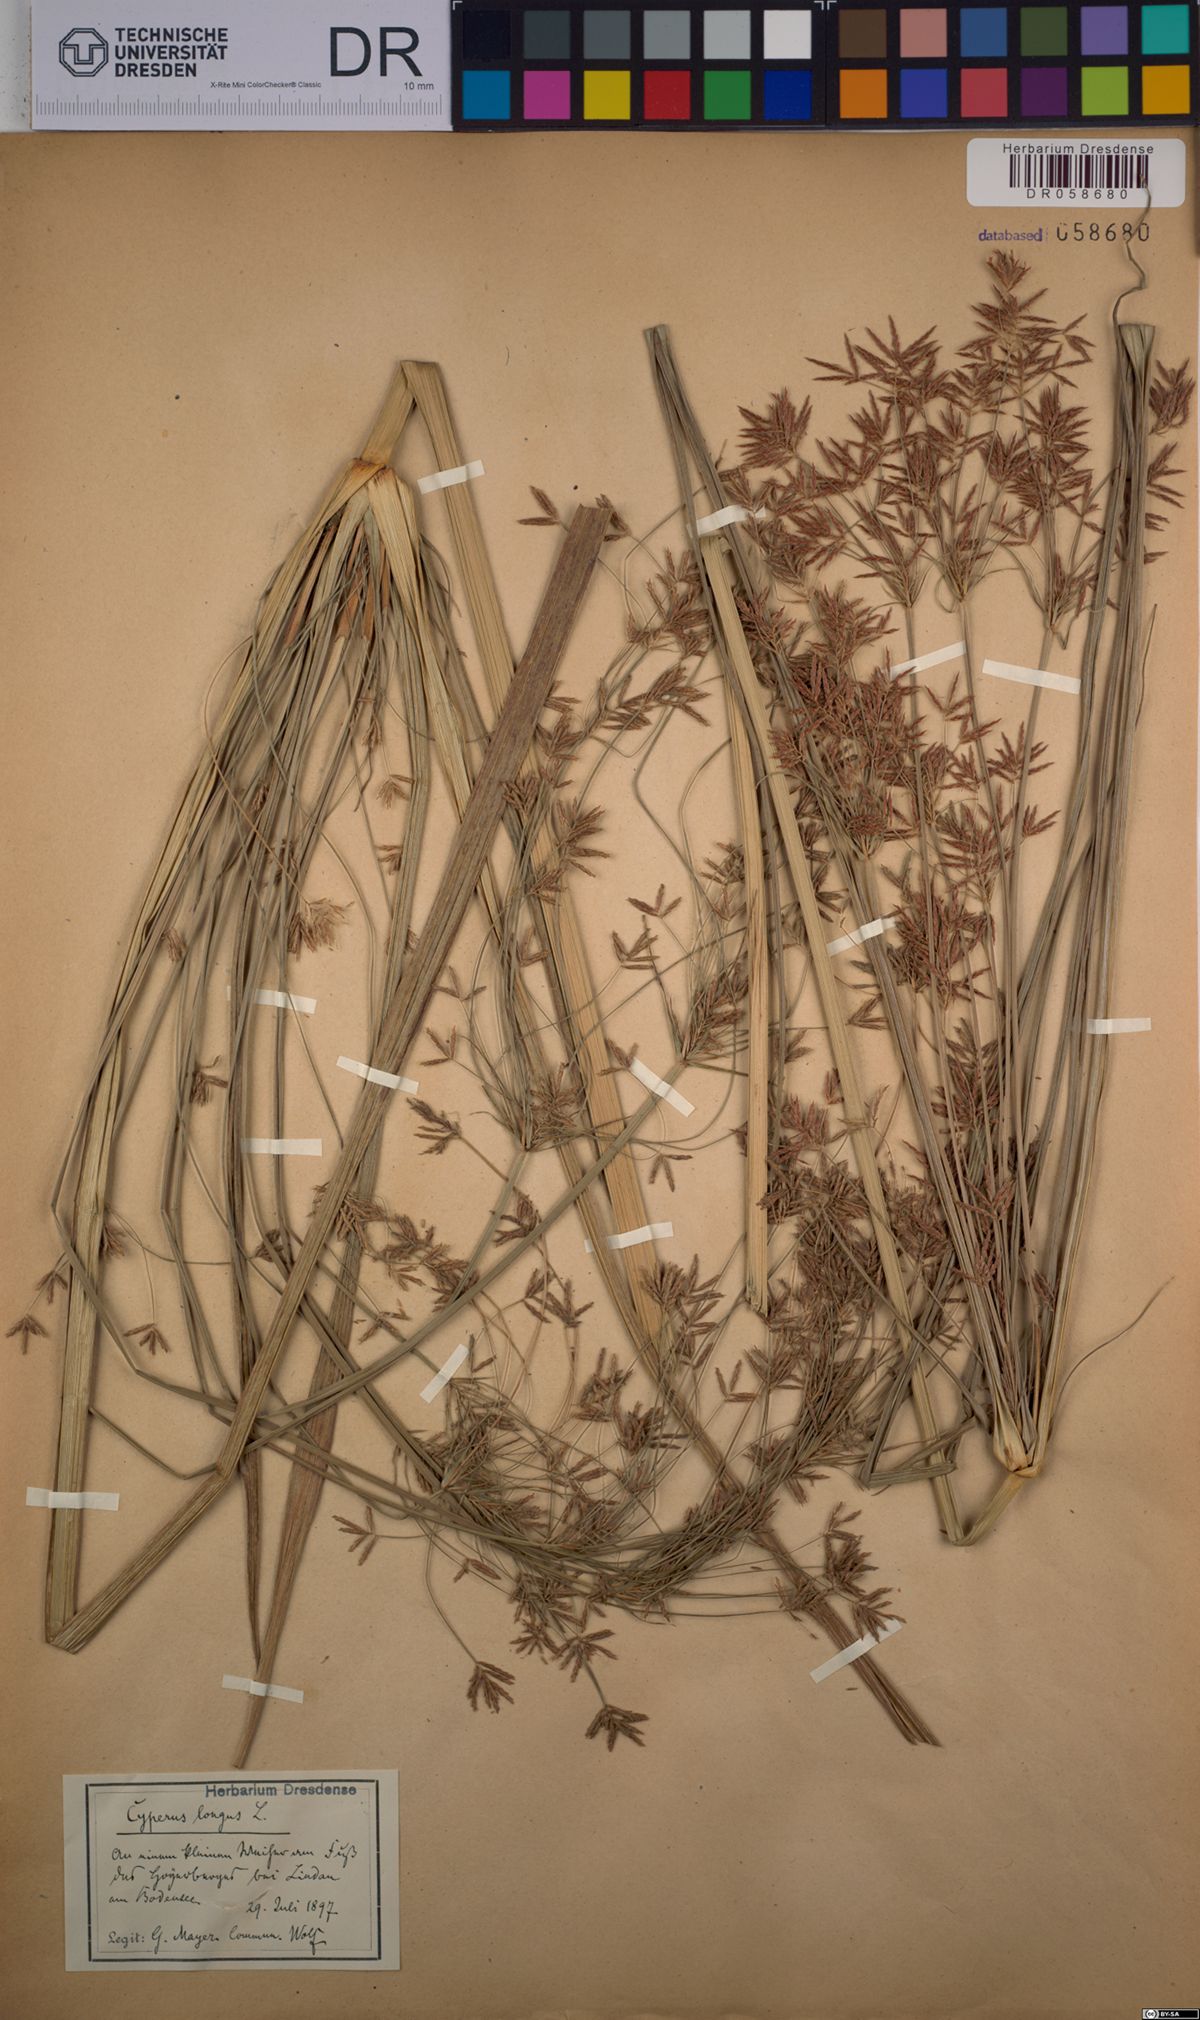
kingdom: Plantae
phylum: Tracheophyta
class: Liliopsida
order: Poales
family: Cyperaceae
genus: Cyperus
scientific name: Cyperus longus
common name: Galingale
